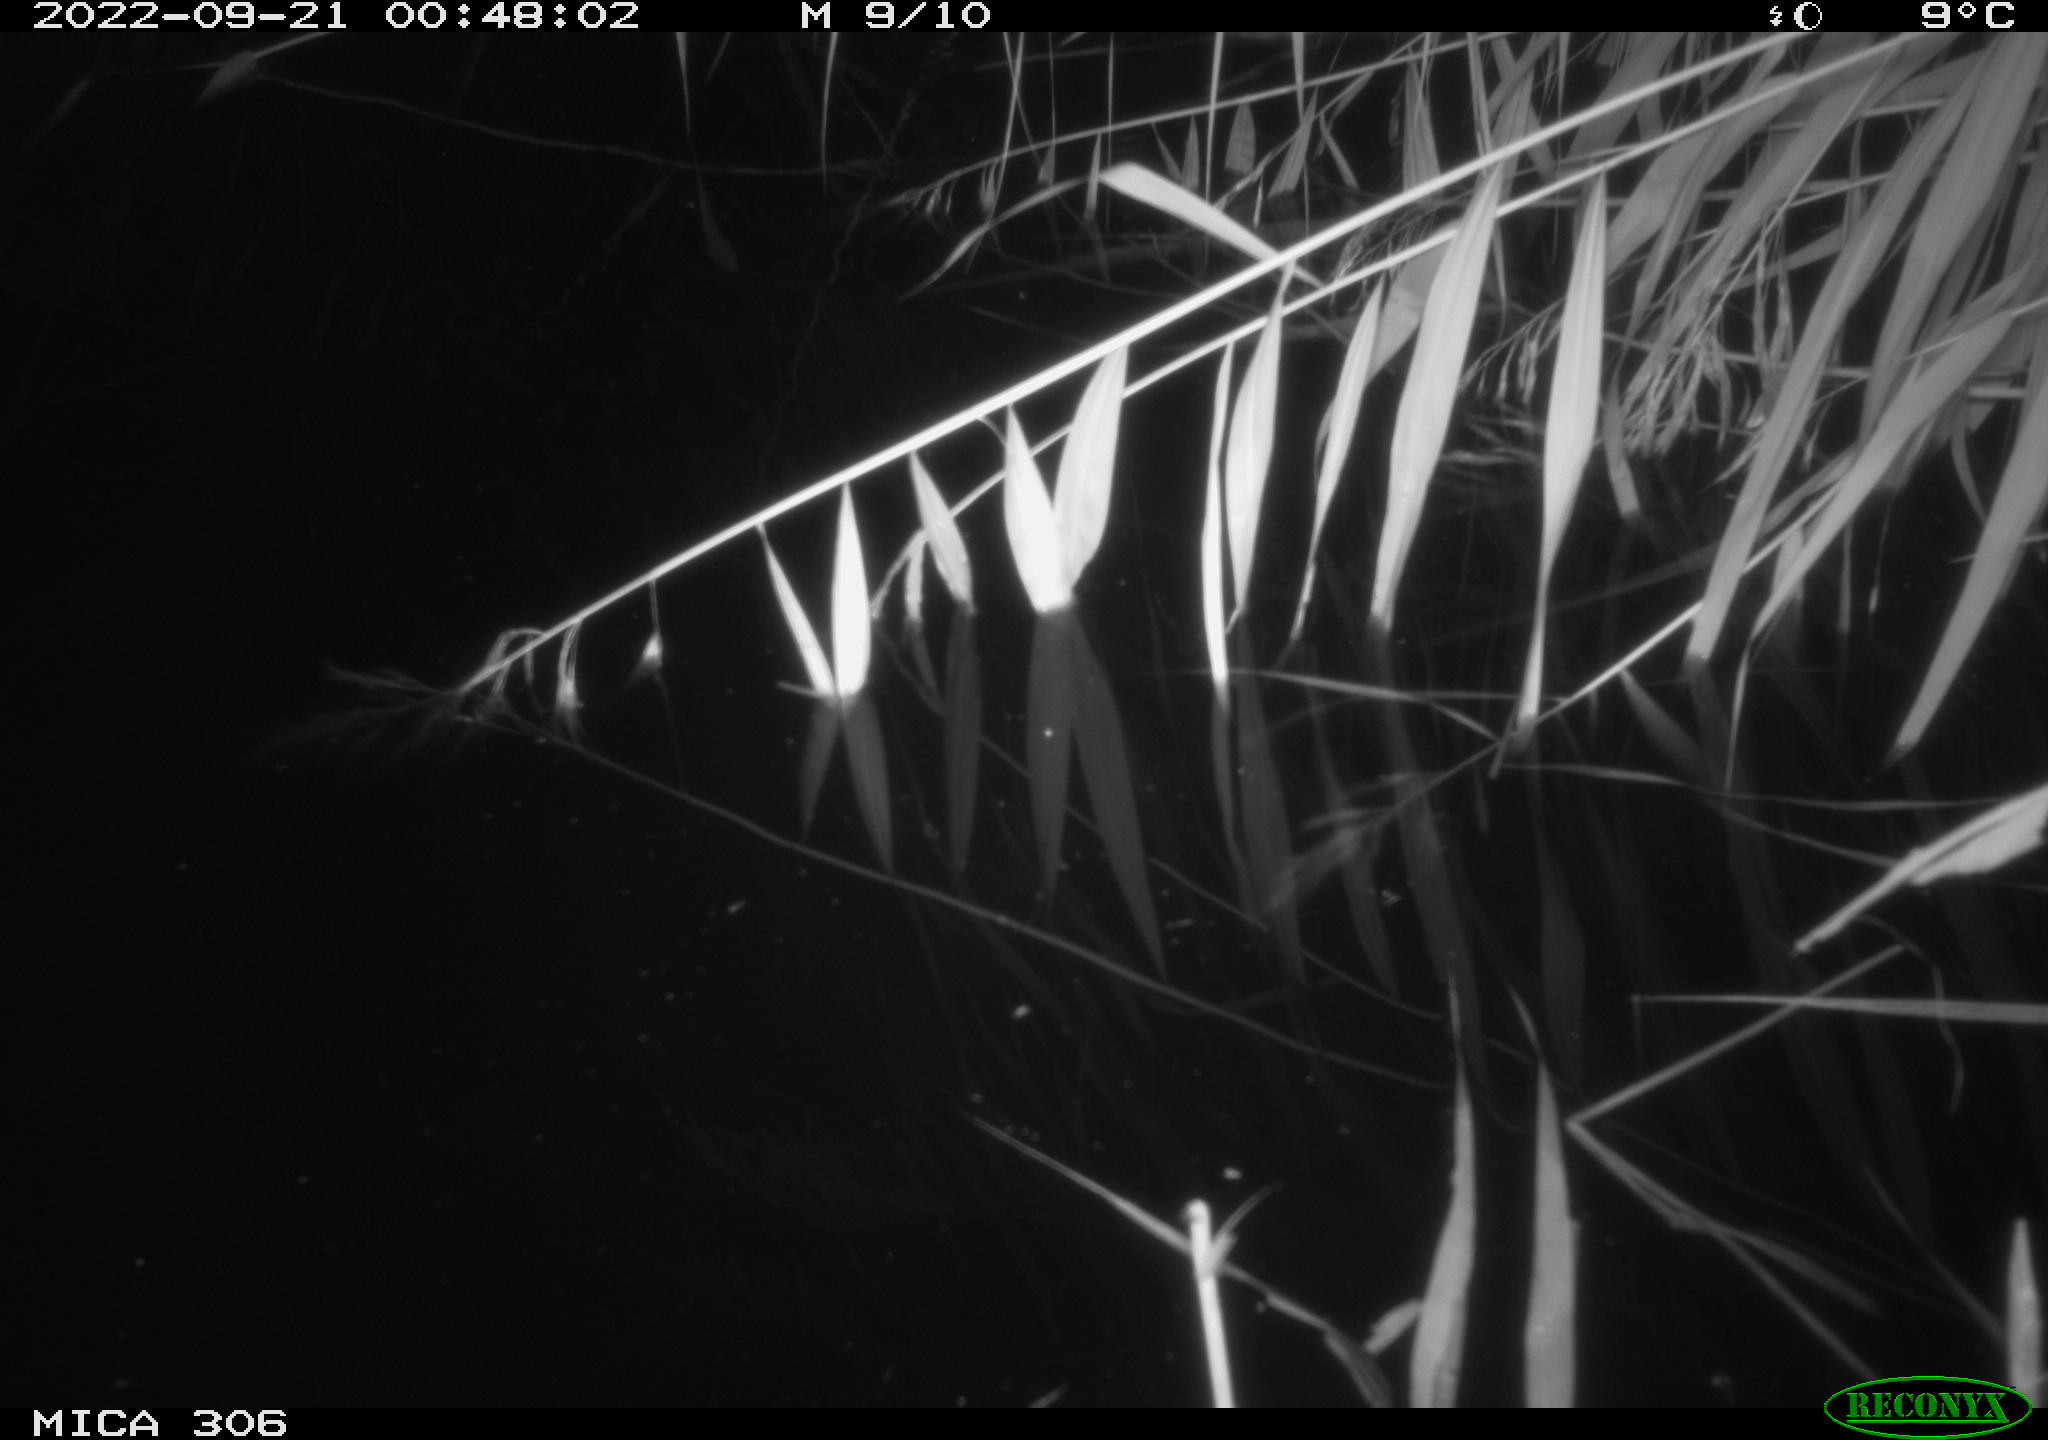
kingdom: Animalia
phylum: Chordata
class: Mammalia
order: Rodentia
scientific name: Rodentia
